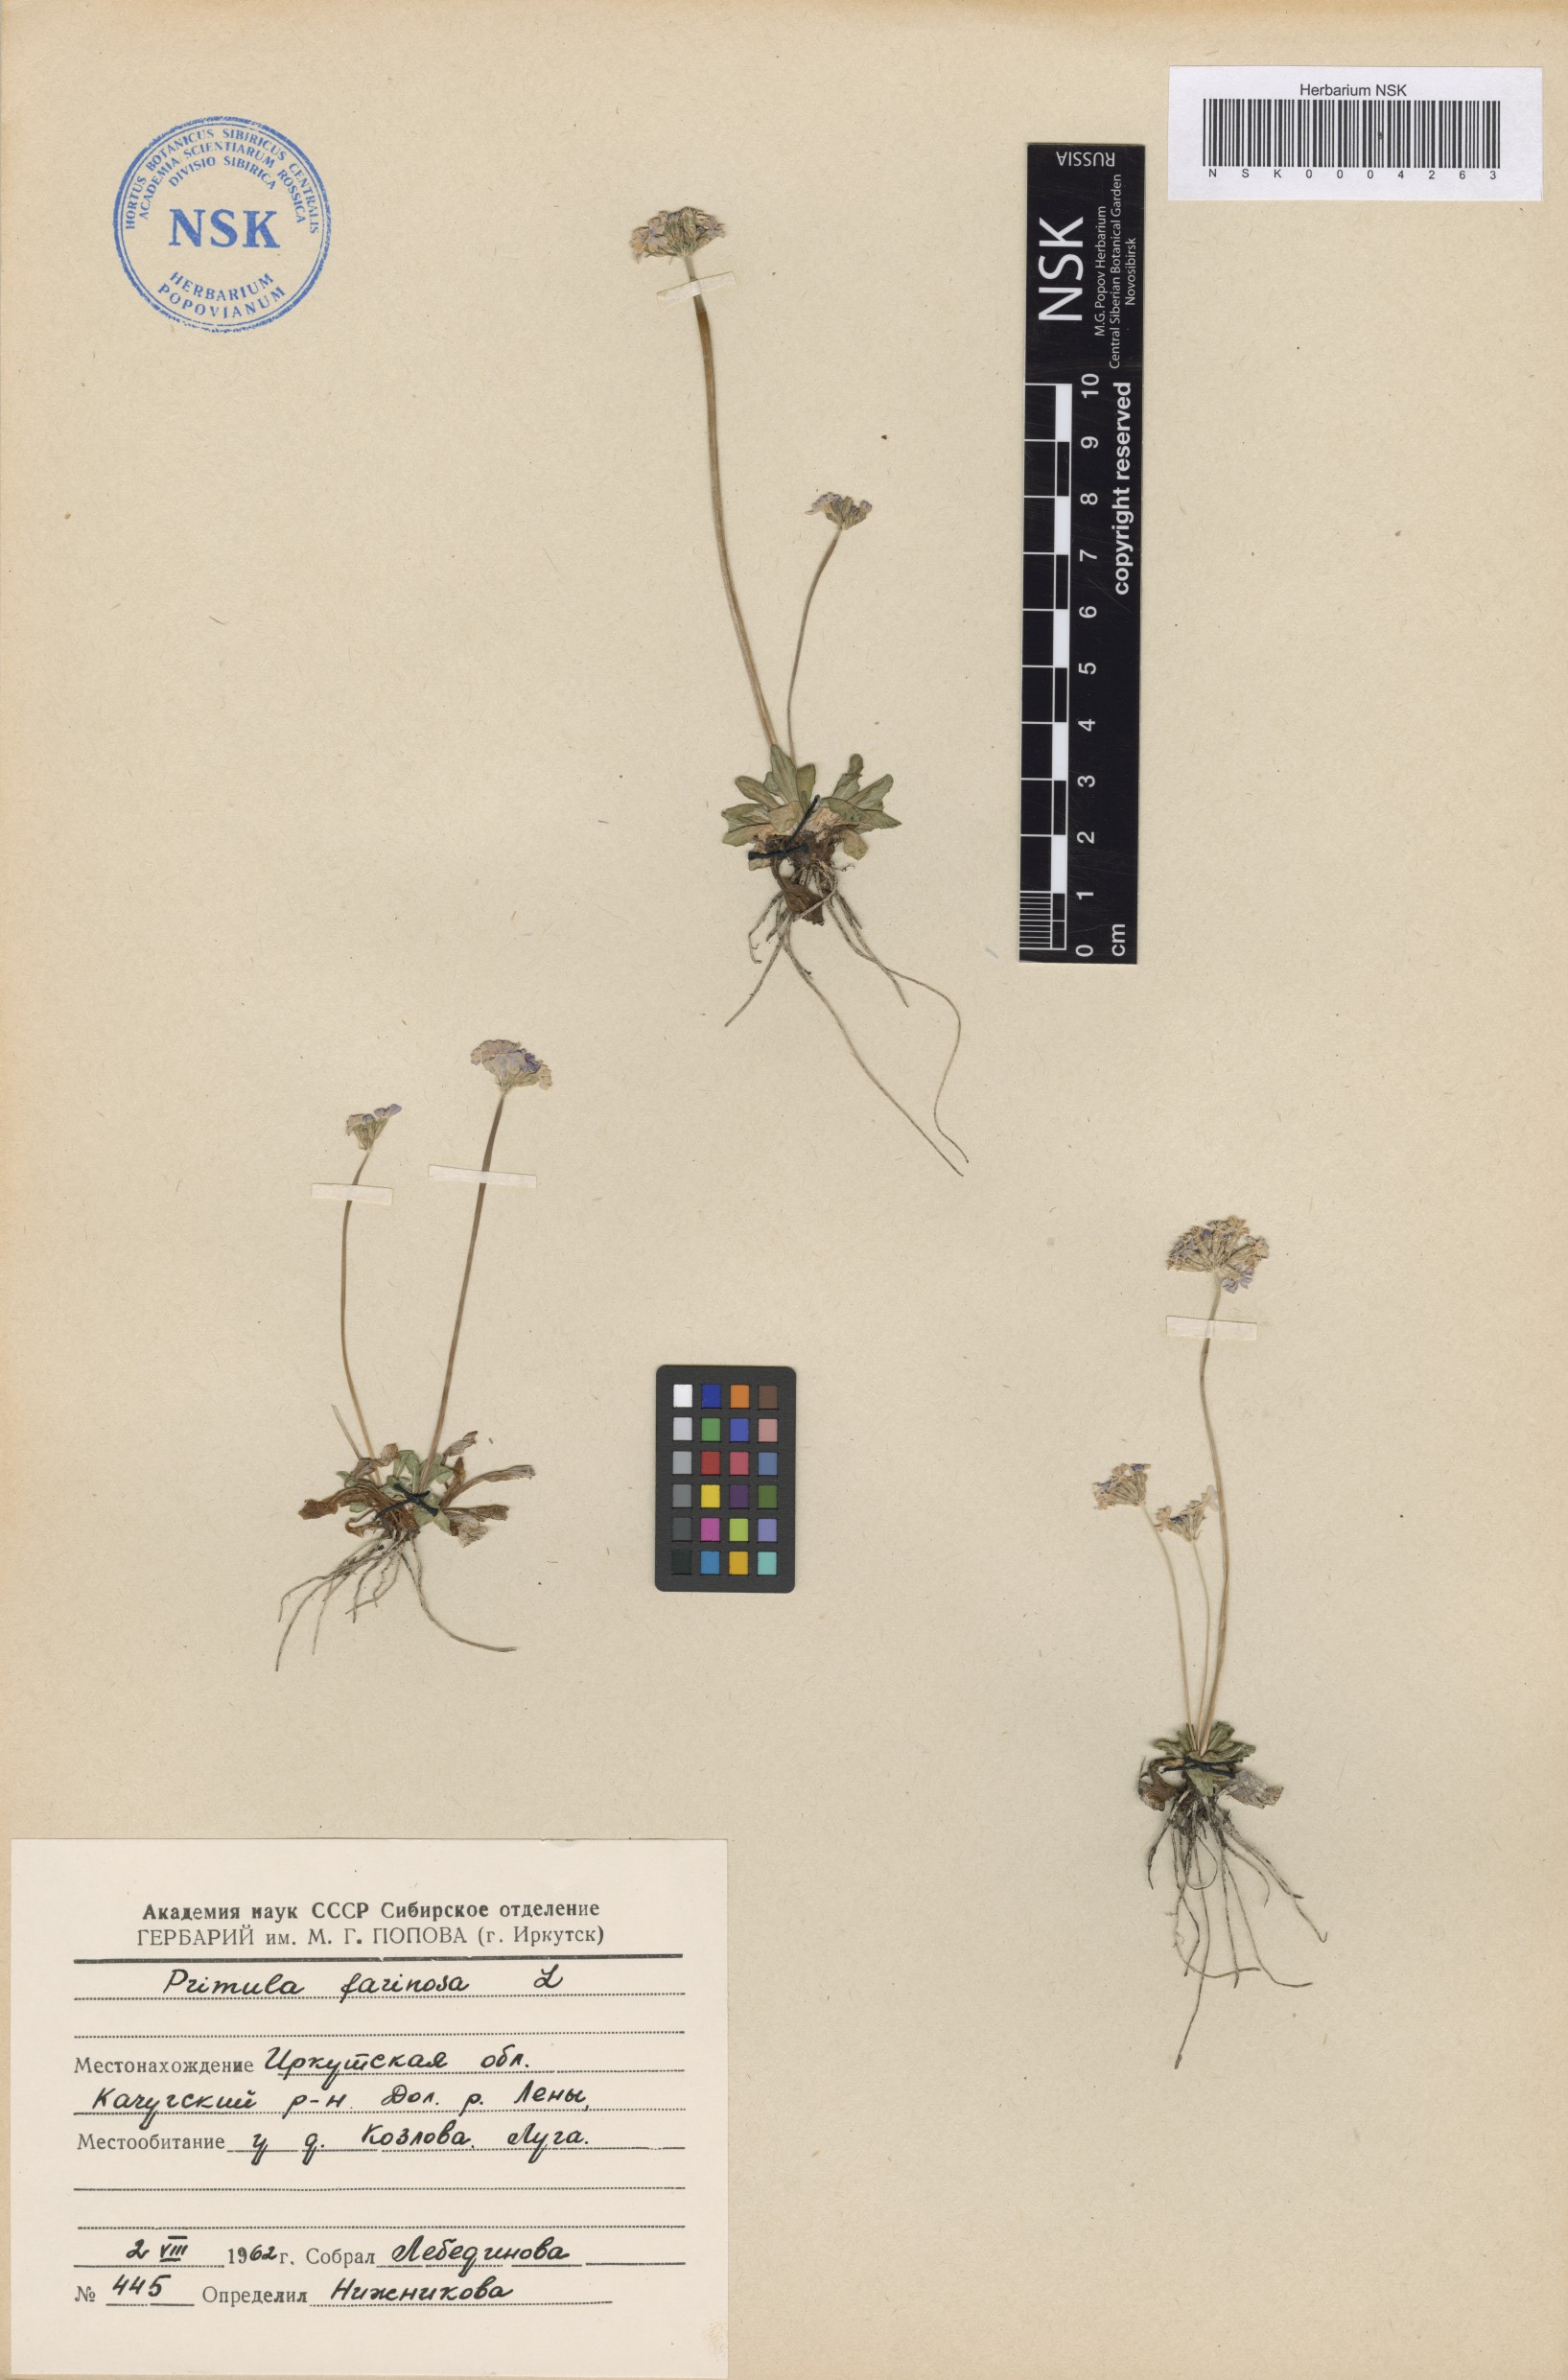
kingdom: Plantae
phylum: Tracheophyta
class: Magnoliopsida
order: Ericales
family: Primulaceae
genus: Primula
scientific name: Primula farinosa
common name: Bird's-eye primrose
